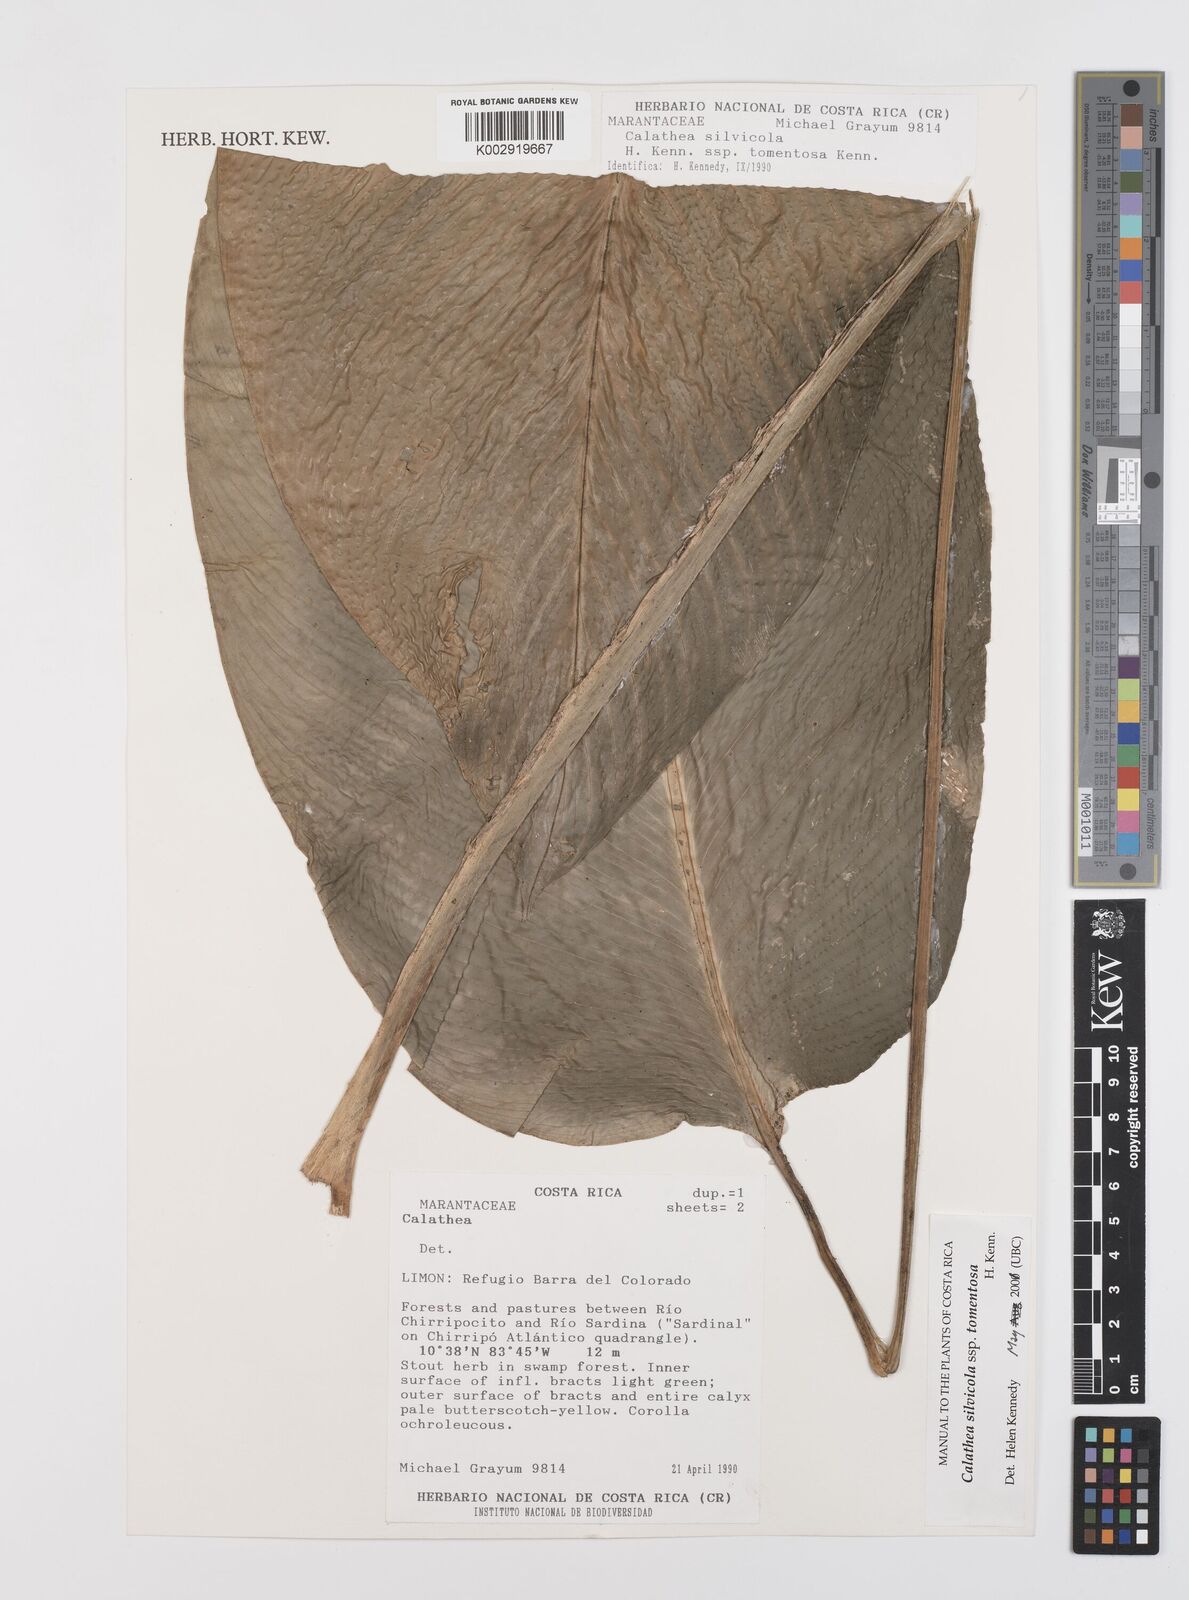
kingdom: Plantae
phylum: Tracheophyta
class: Liliopsida
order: Zingiberales
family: Marantaceae
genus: Goeppertia
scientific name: Goeppertia silvicola
